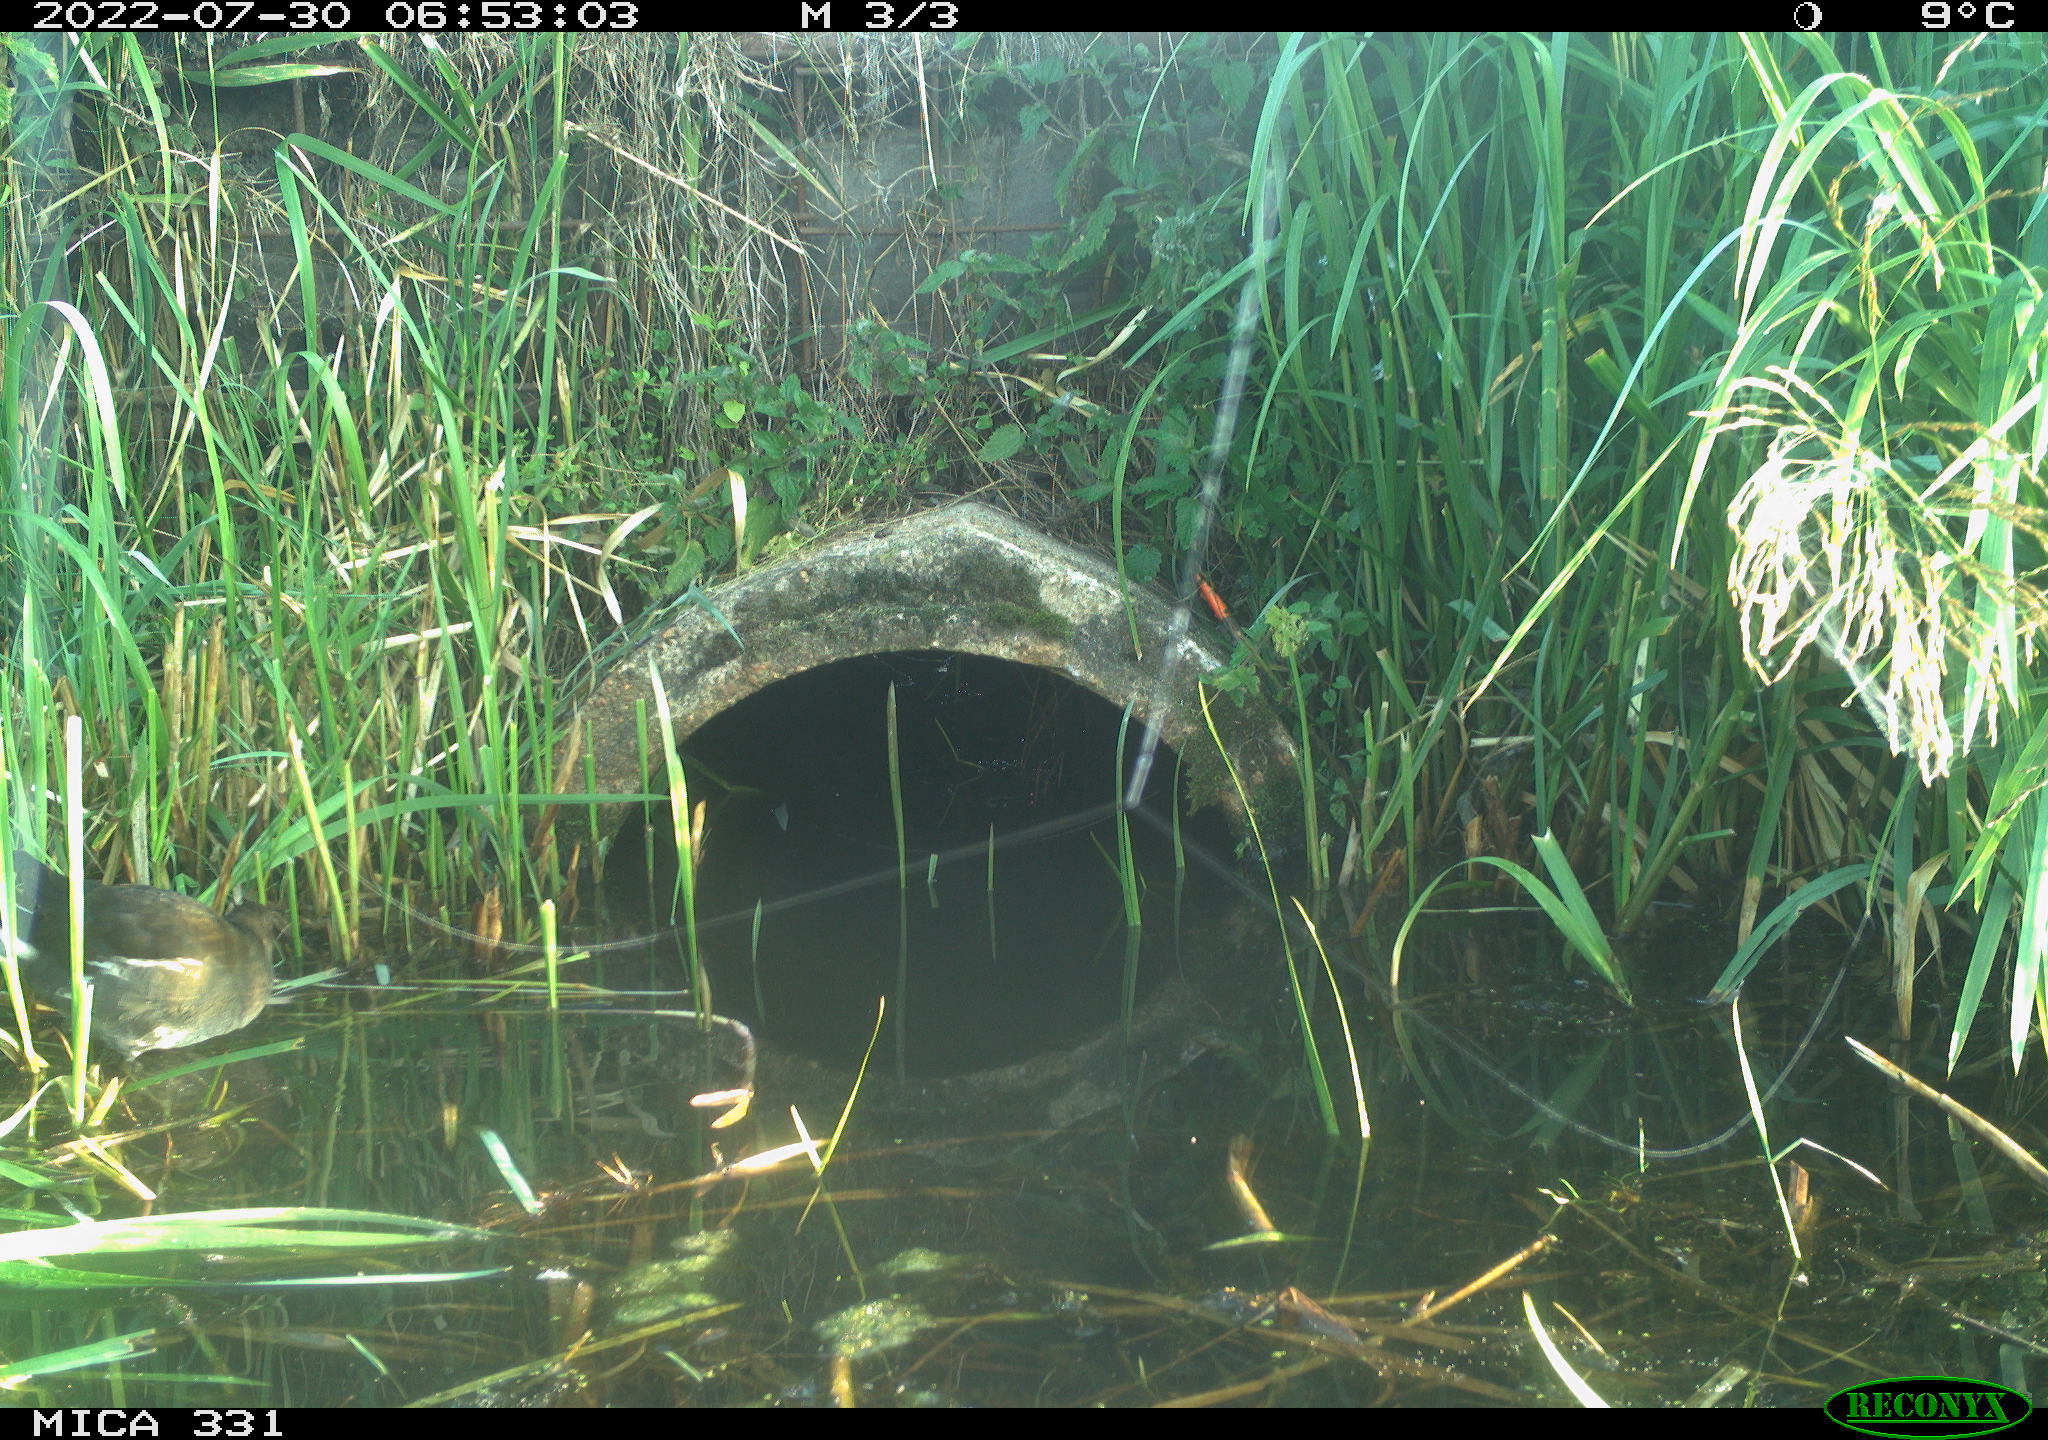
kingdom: Animalia
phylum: Chordata
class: Aves
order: Gruiformes
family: Rallidae
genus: Gallinula
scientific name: Gallinula chloropus
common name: Common moorhen
